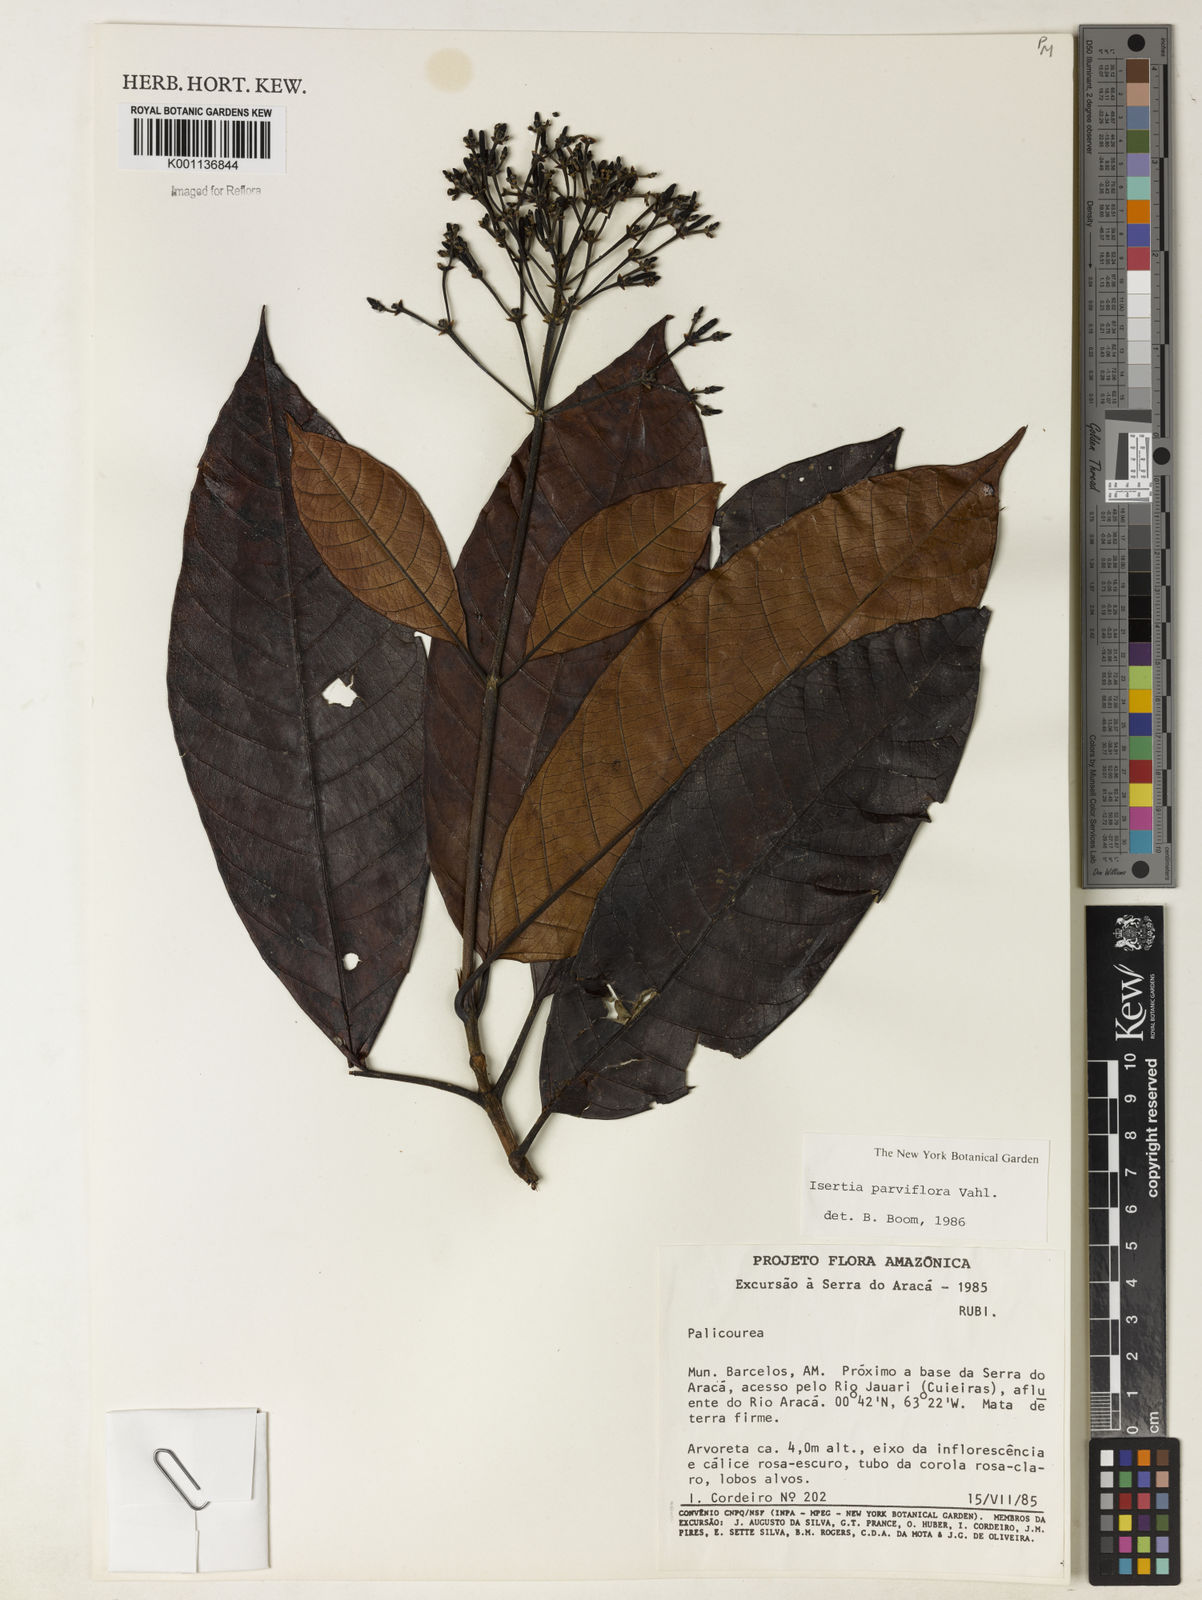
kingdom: Plantae
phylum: Tracheophyta
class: Magnoliopsida
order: Gentianales
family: Rubiaceae
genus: Isertia
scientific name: Isertia parviflora
